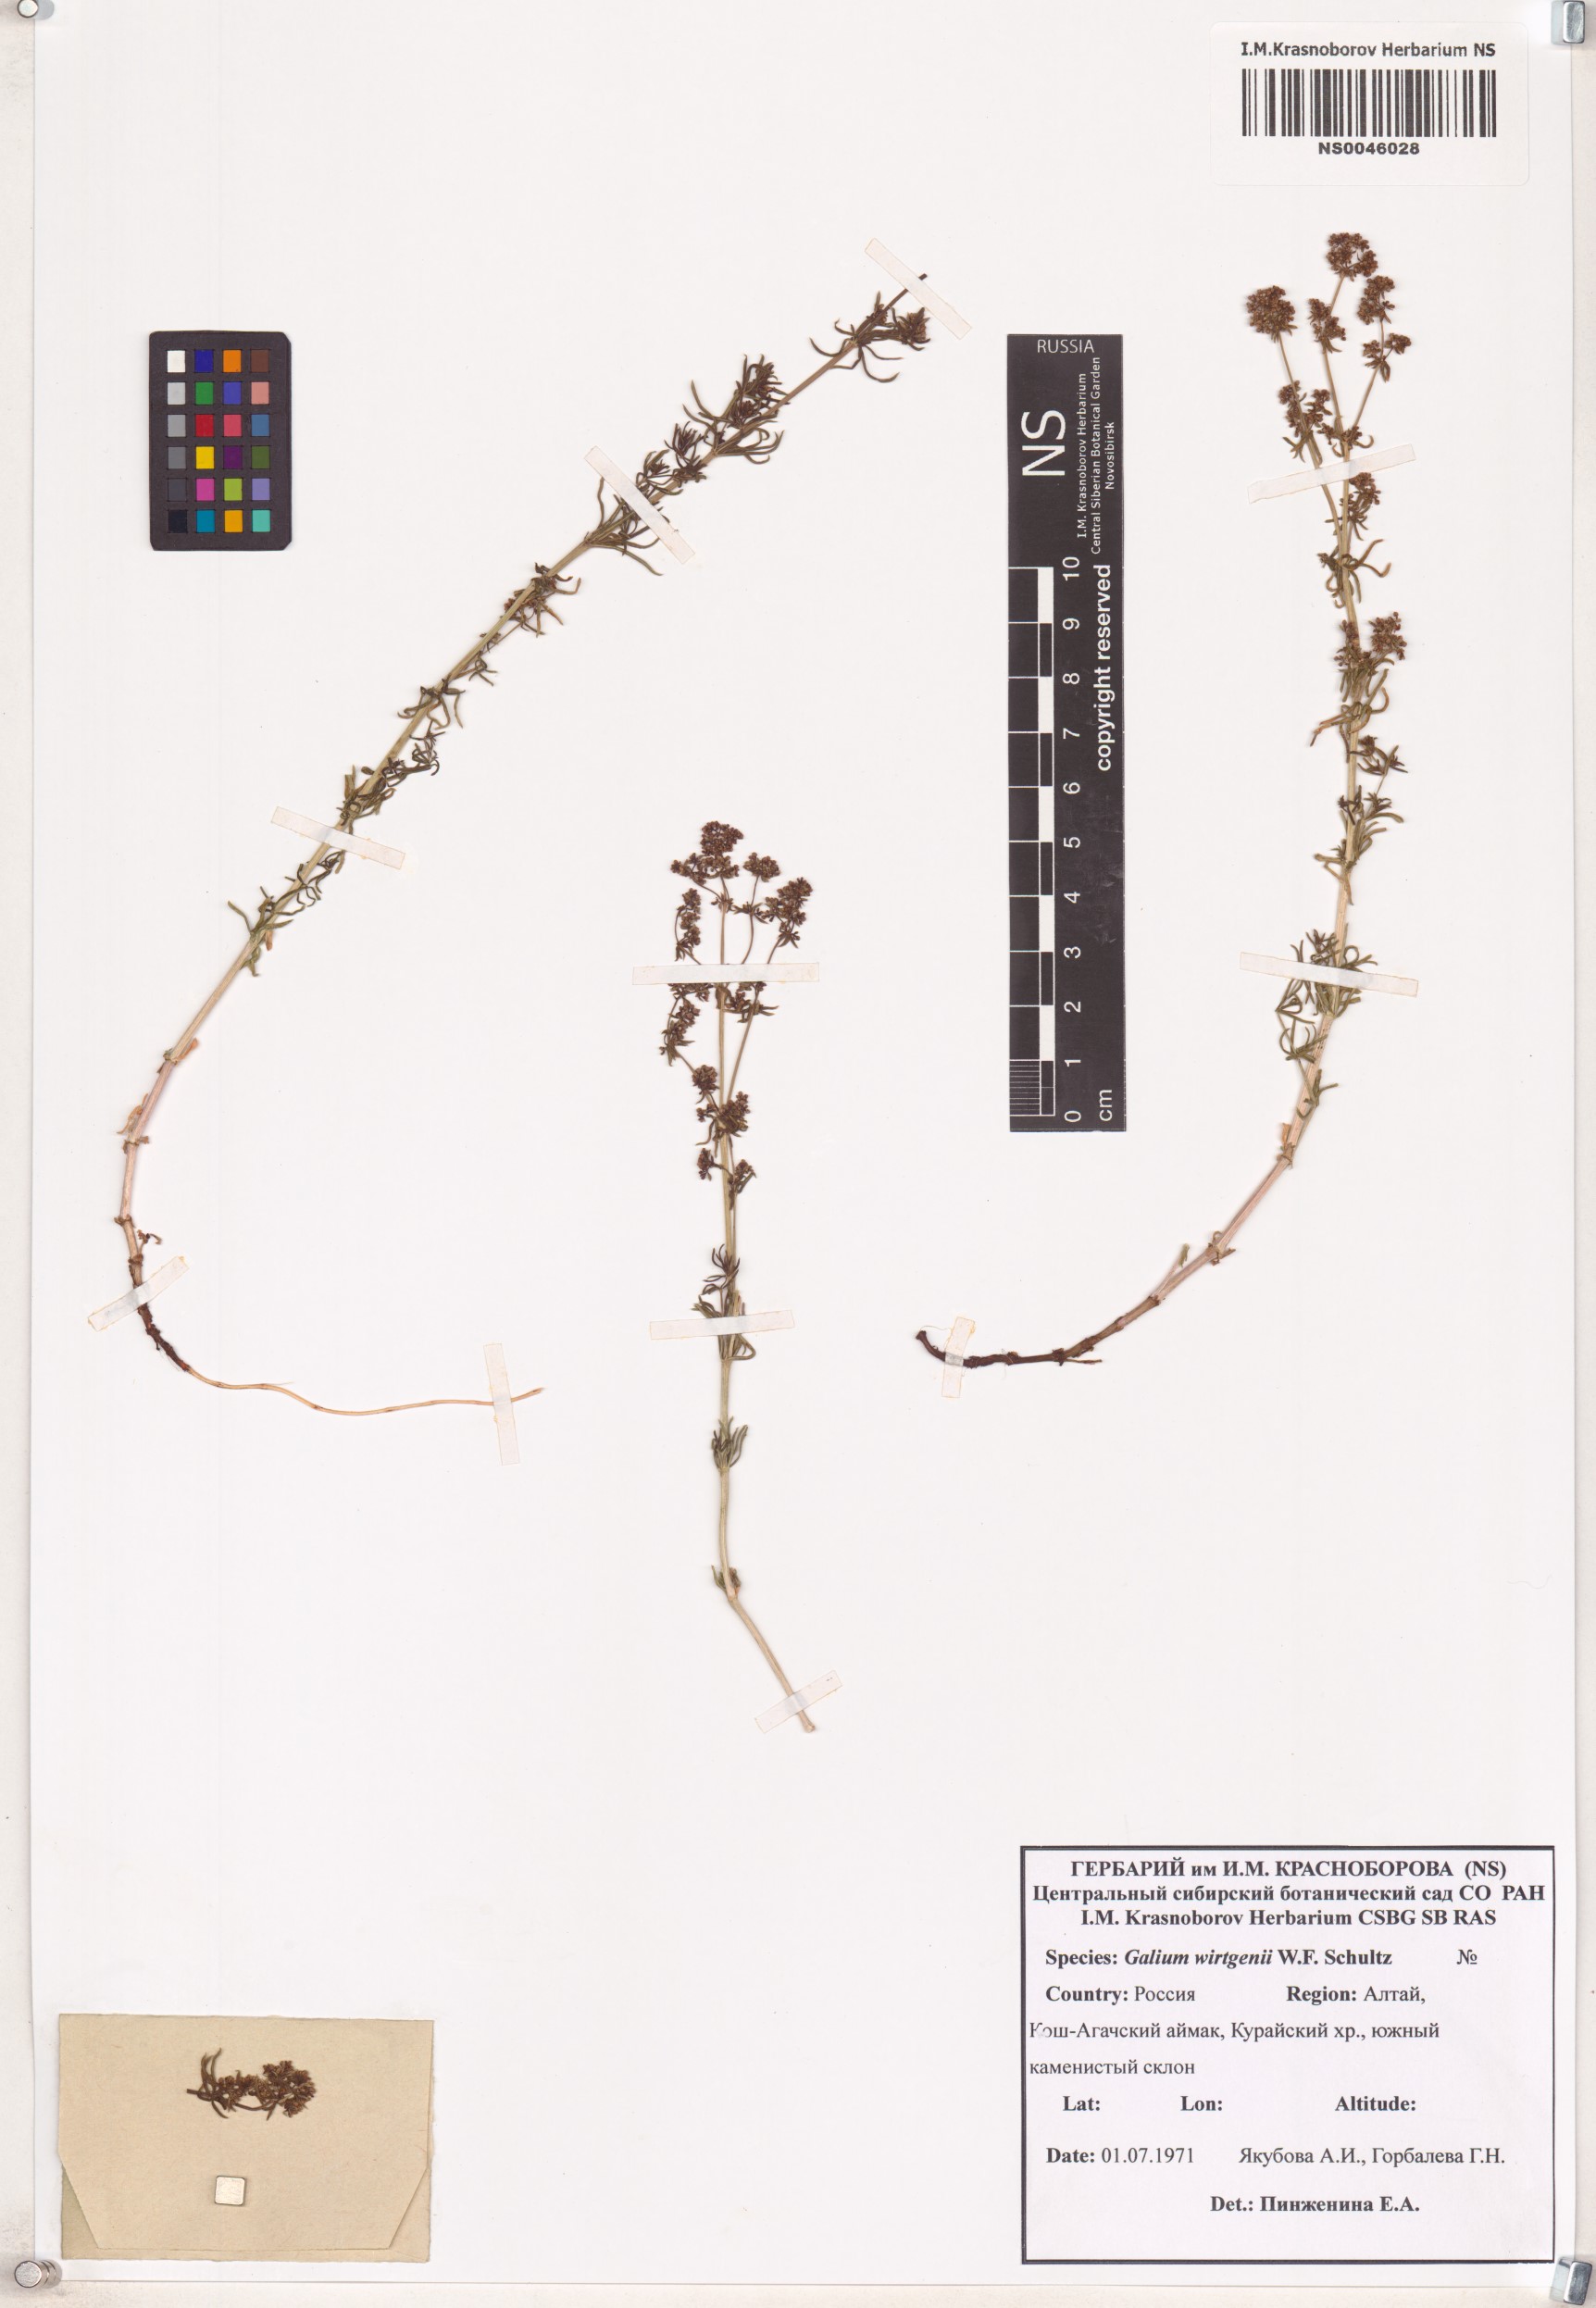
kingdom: Plantae
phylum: Tracheophyta
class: Magnoliopsida
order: Gentianales
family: Rubiaceae
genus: Galium
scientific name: Galium verum
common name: Lady's bedstraw
